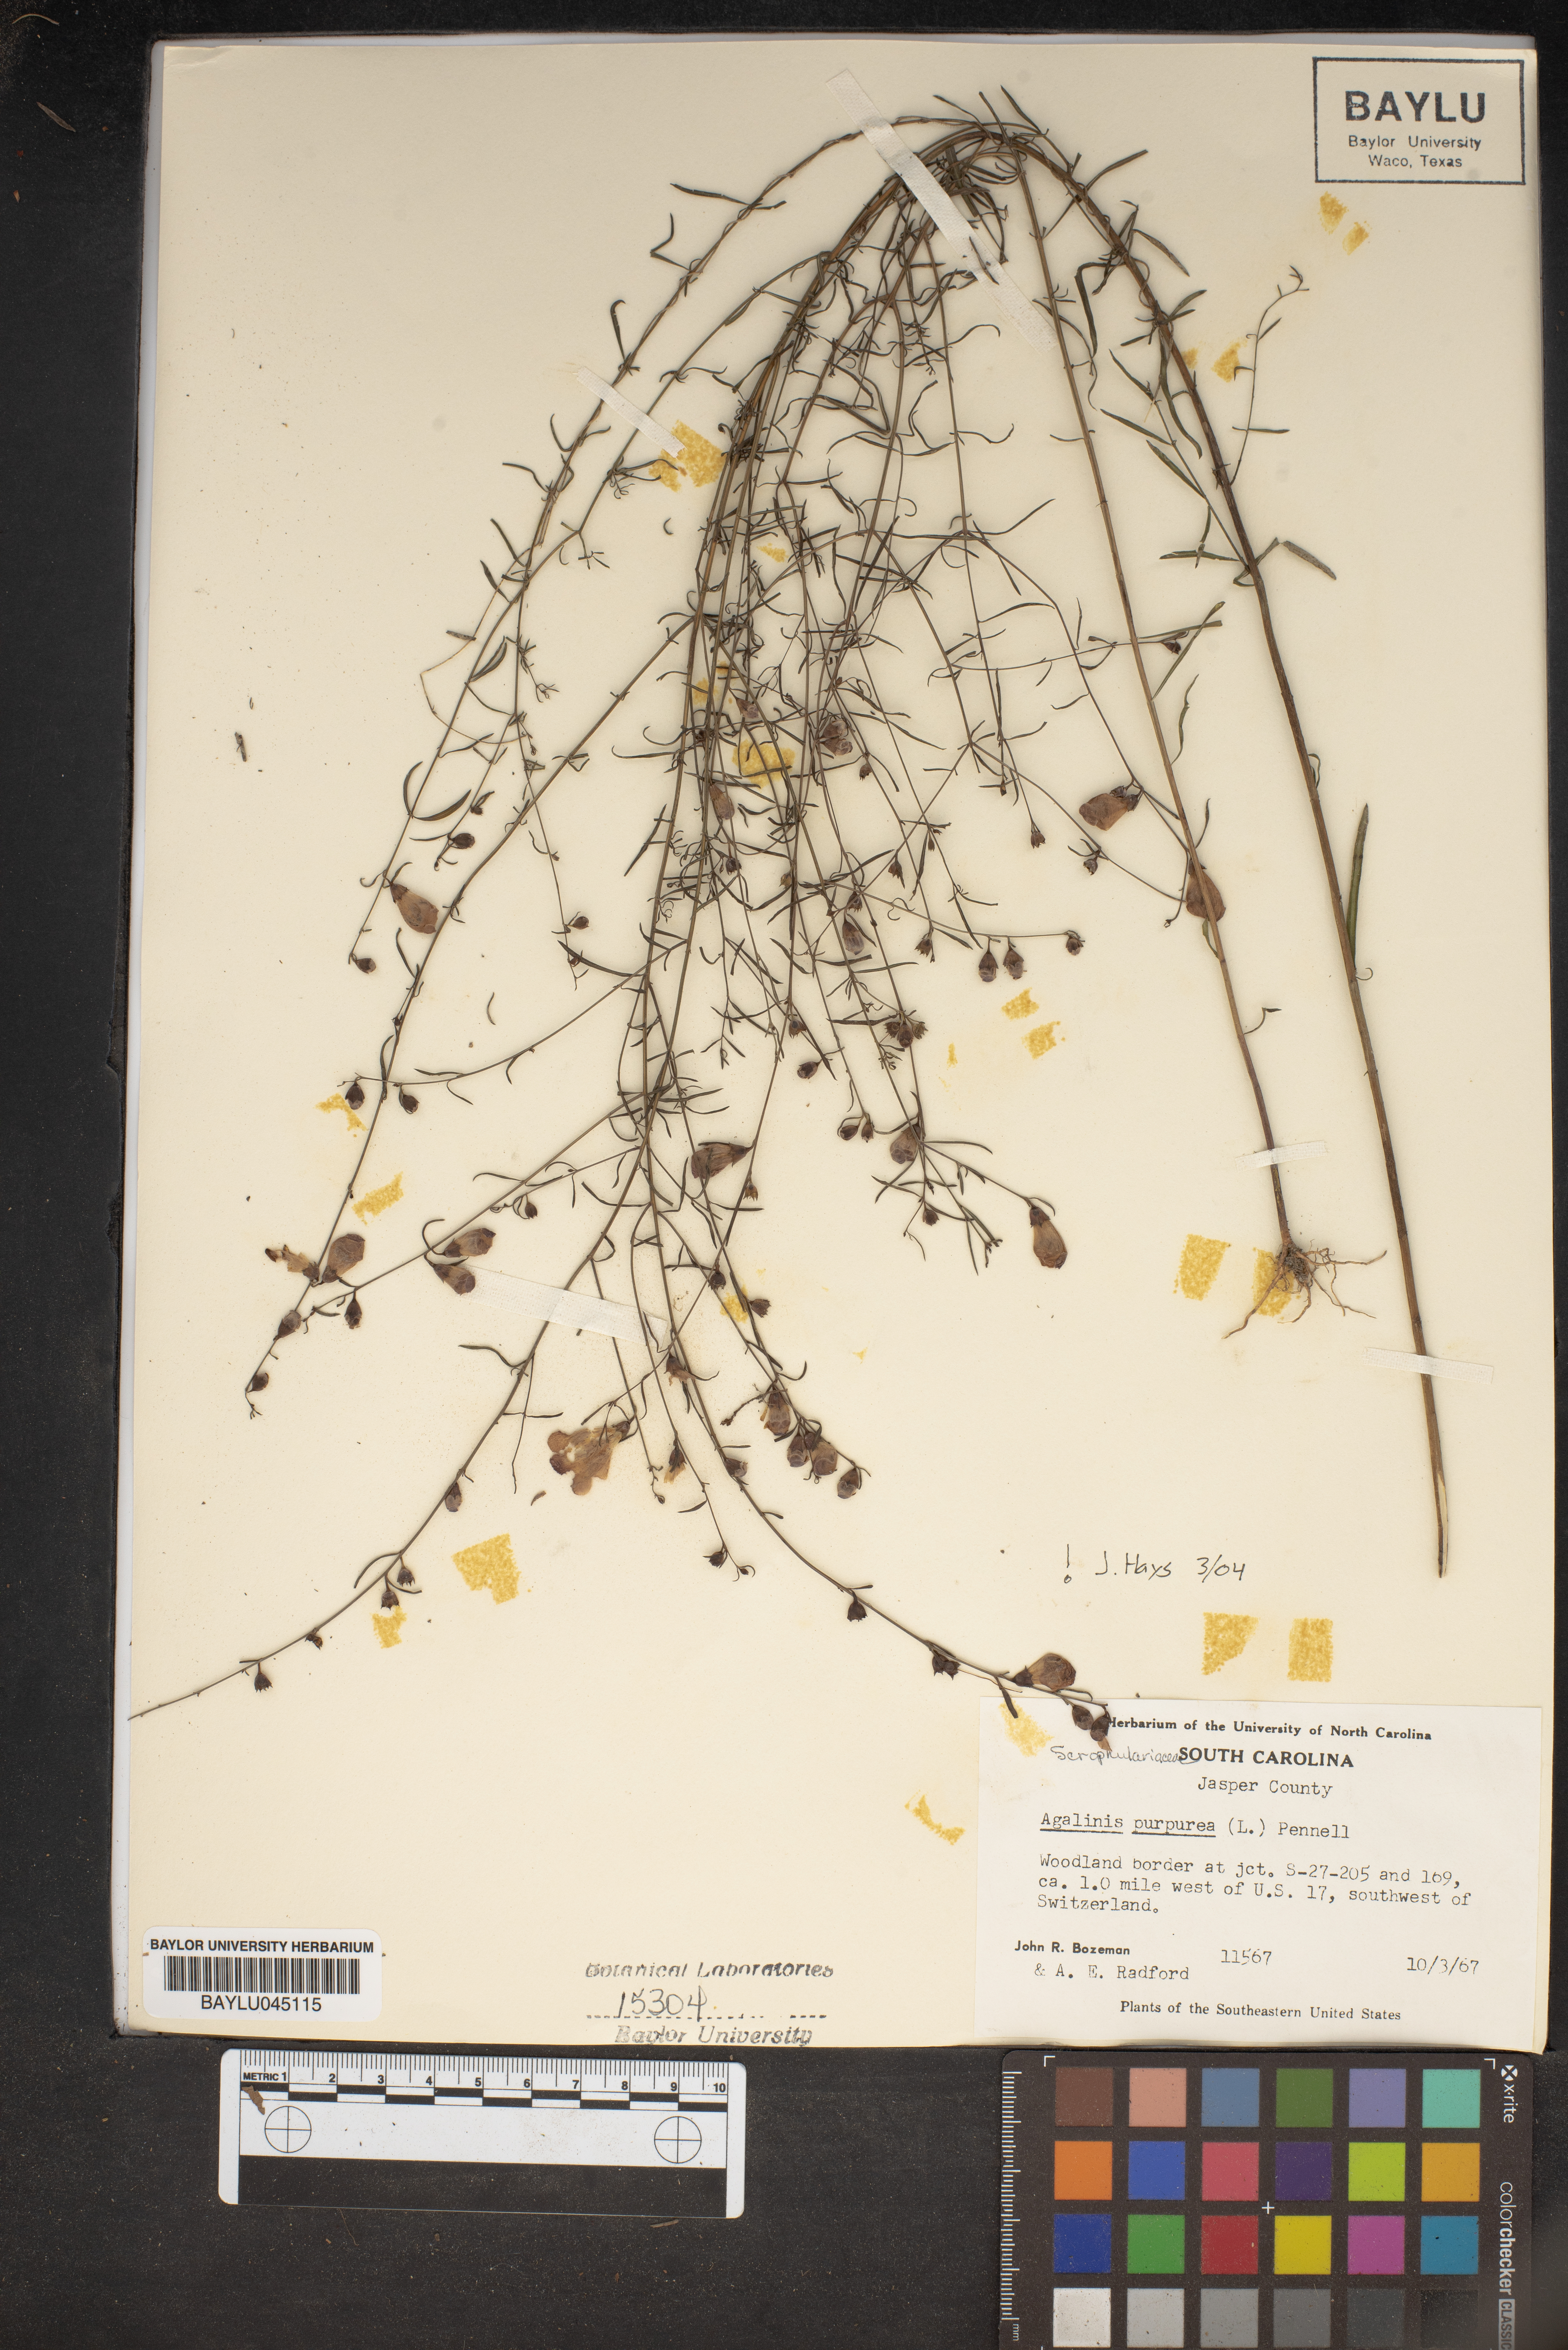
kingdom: Plantae
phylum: Tracheophyta
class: Magnoliopsida
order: Lamiales
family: Orobanchaceae
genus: Agalinis
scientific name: Agalinis purpurea
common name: Purple false foxglove
